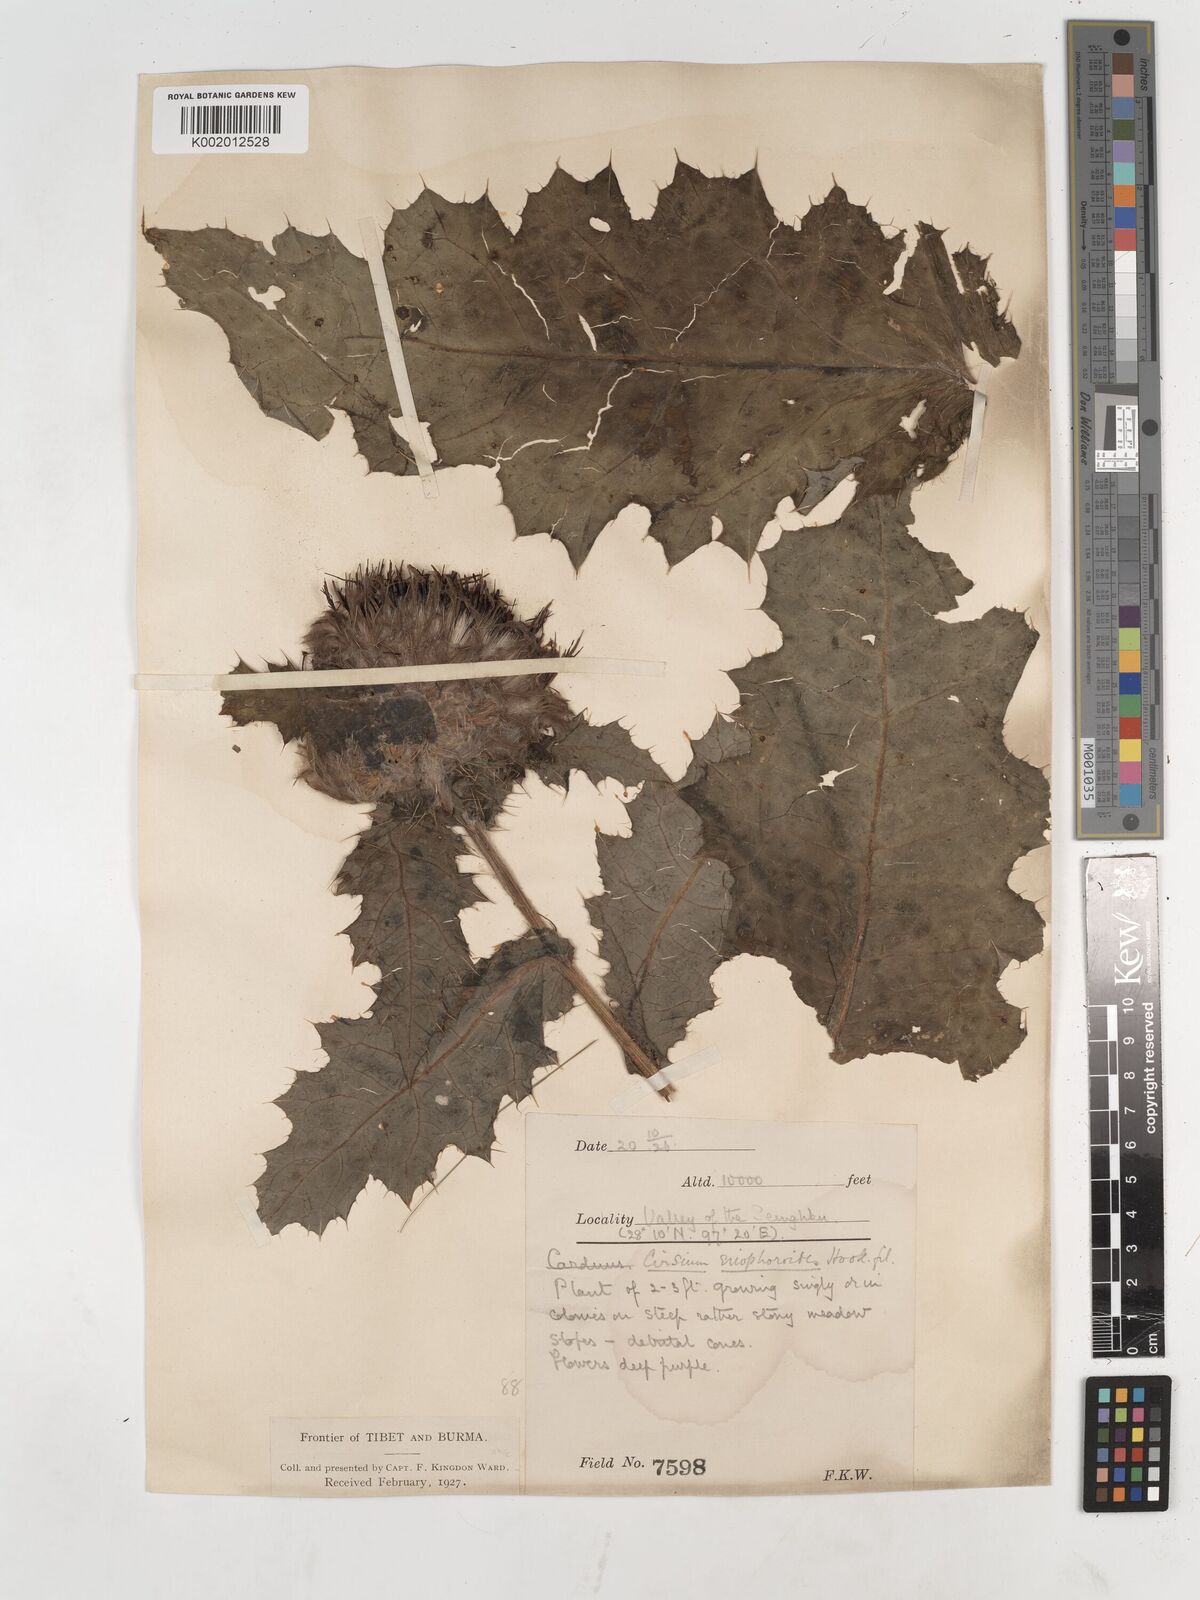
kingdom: Plantae
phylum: Tracheophyta
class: Magnoliopsida
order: Asterales
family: Asteraceae
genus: Cirsium
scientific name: Cirsium eriophoroides
